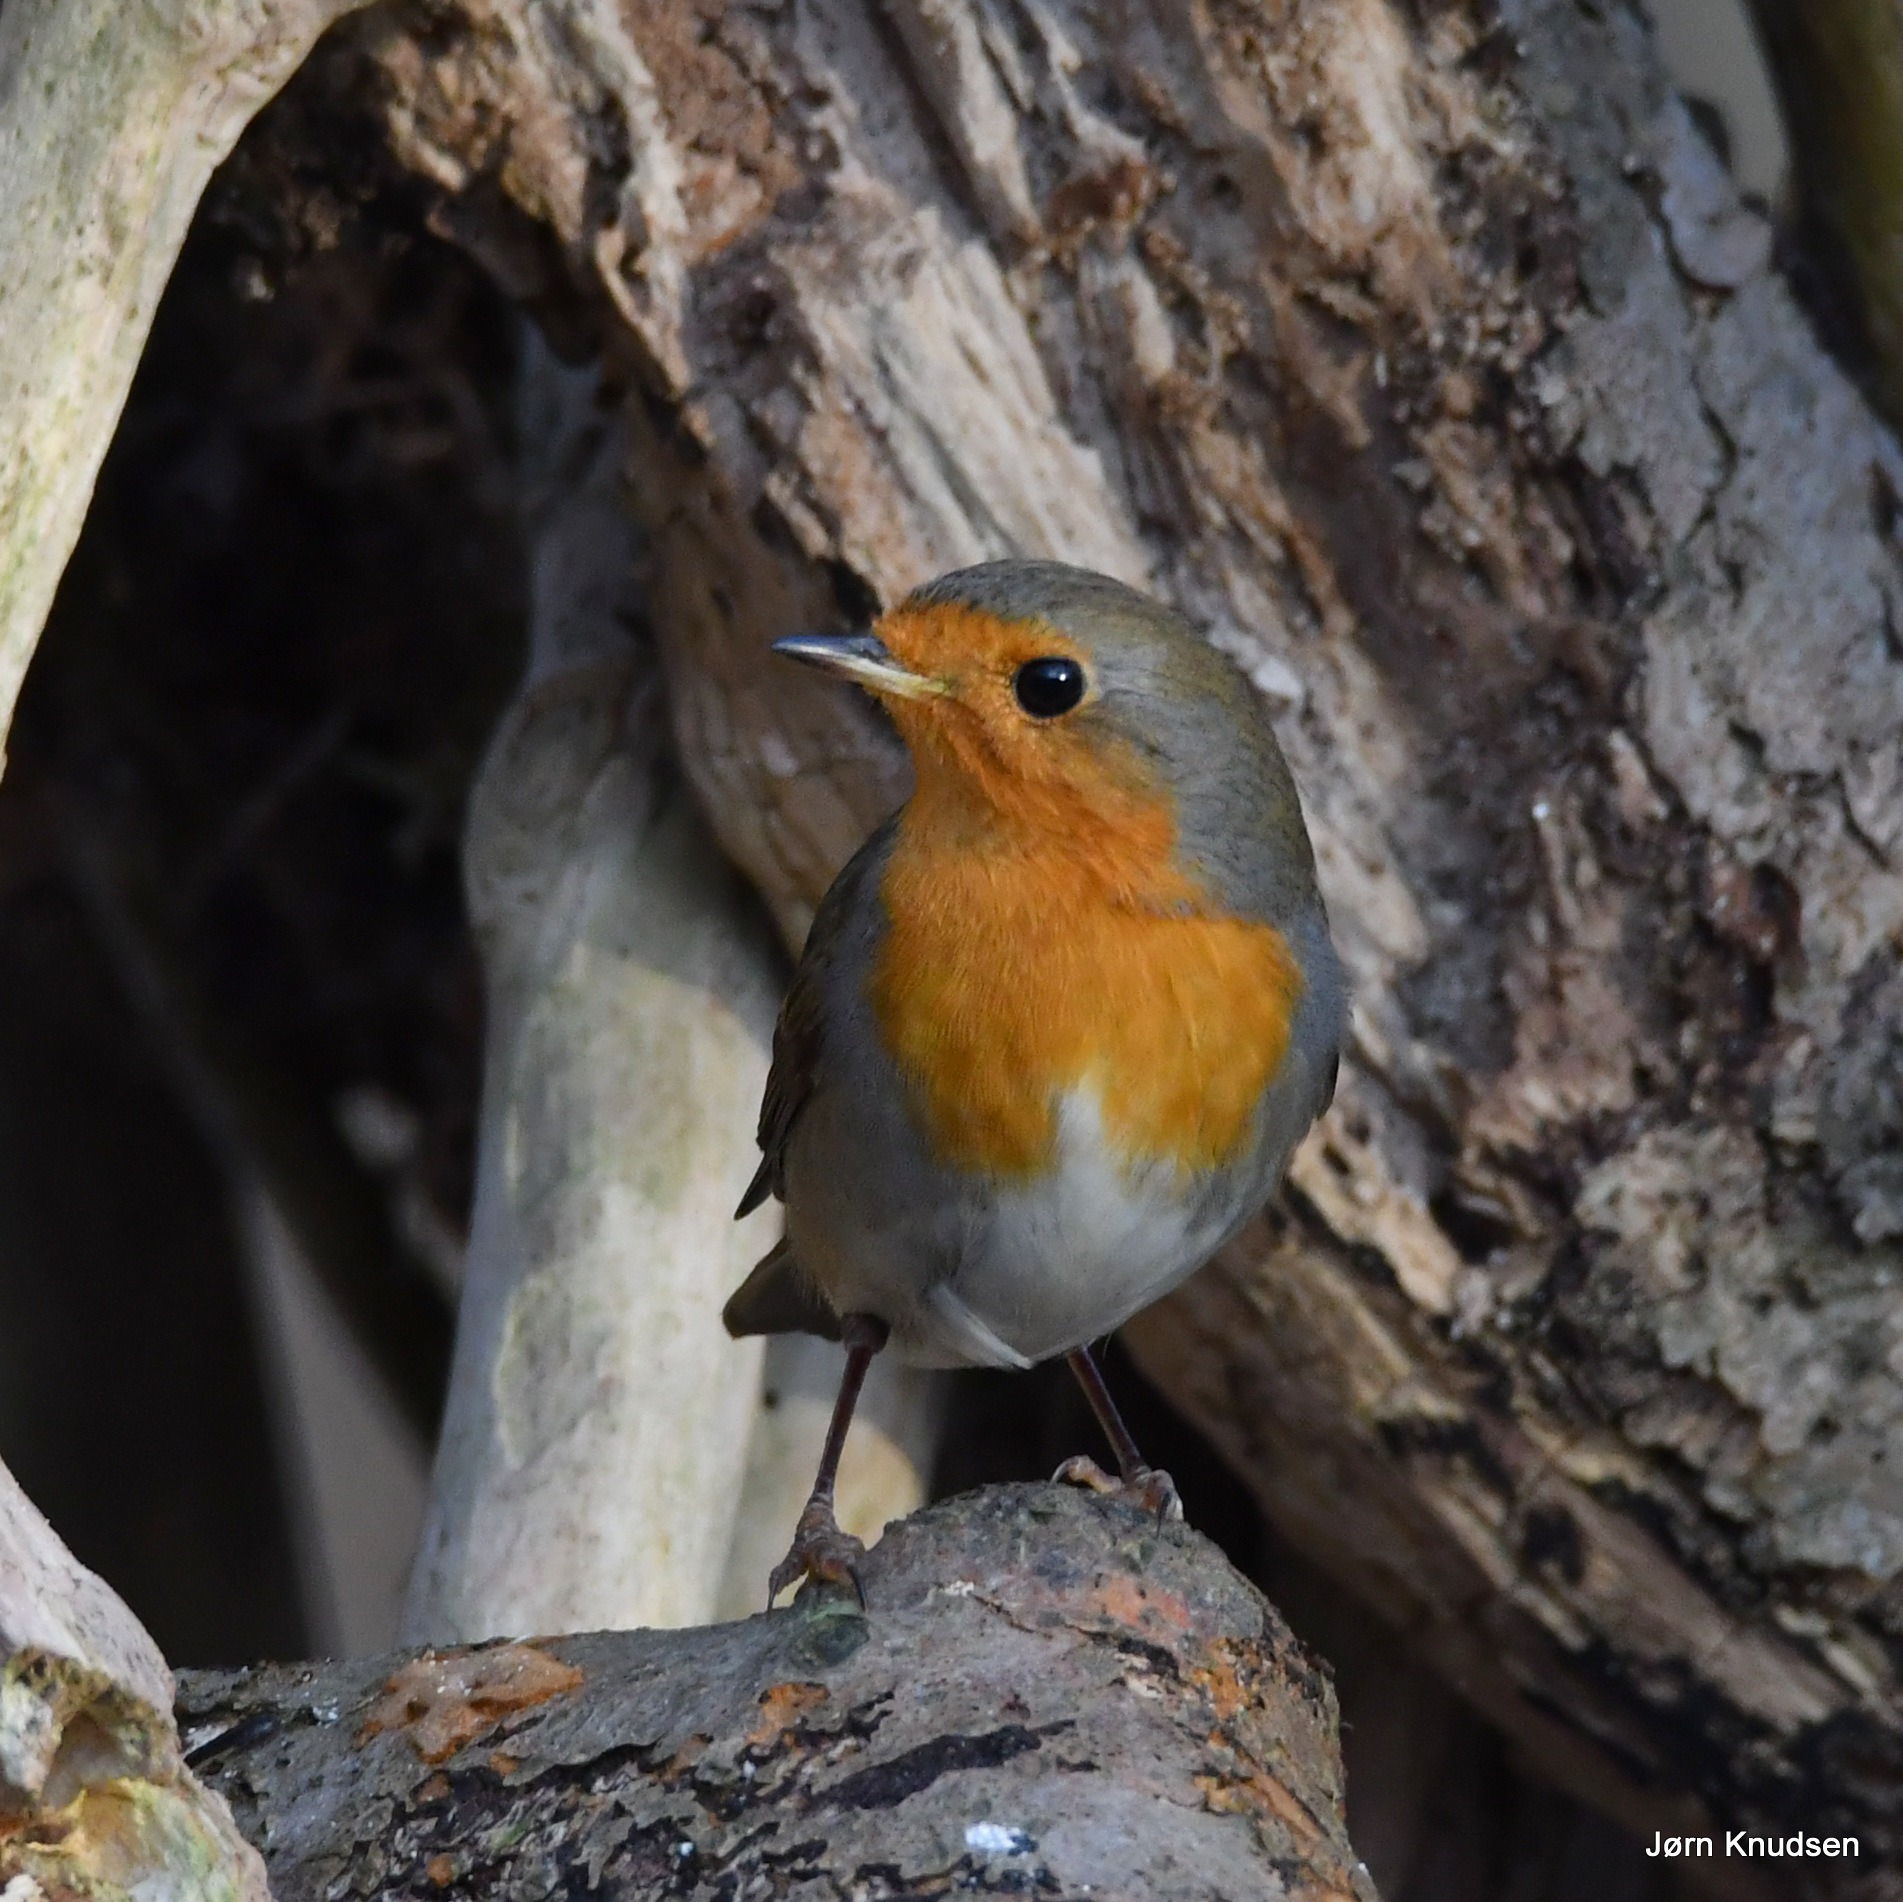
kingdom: Animalia
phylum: Chordata
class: Aves
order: Passeriformes
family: Muscicapidae
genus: Erithacus
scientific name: Erithacus rubecula
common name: Rødhals/rødkælk
